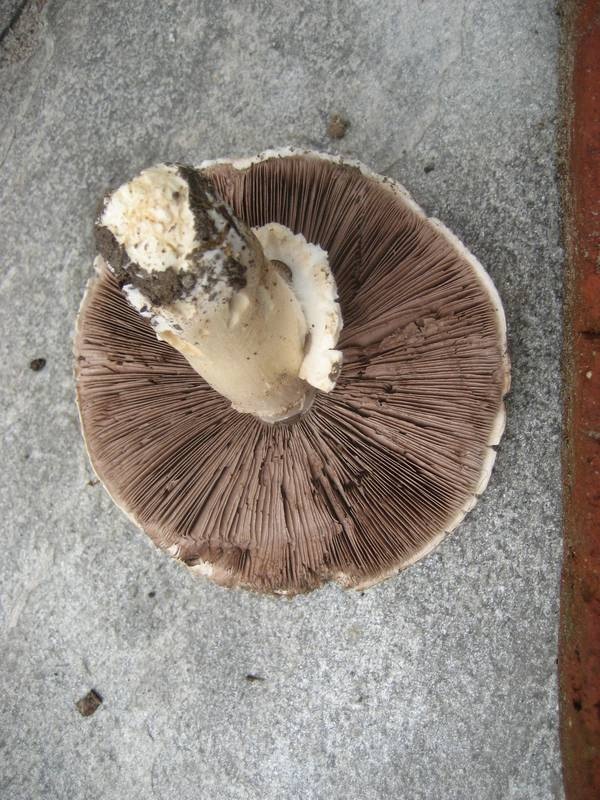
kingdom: Fungi
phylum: Basidiomycota
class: Agaricomycetes
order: Agaricales
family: Agaricaceae
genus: Agaricus
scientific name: Agaricus litoralis
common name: kyst-champignon
